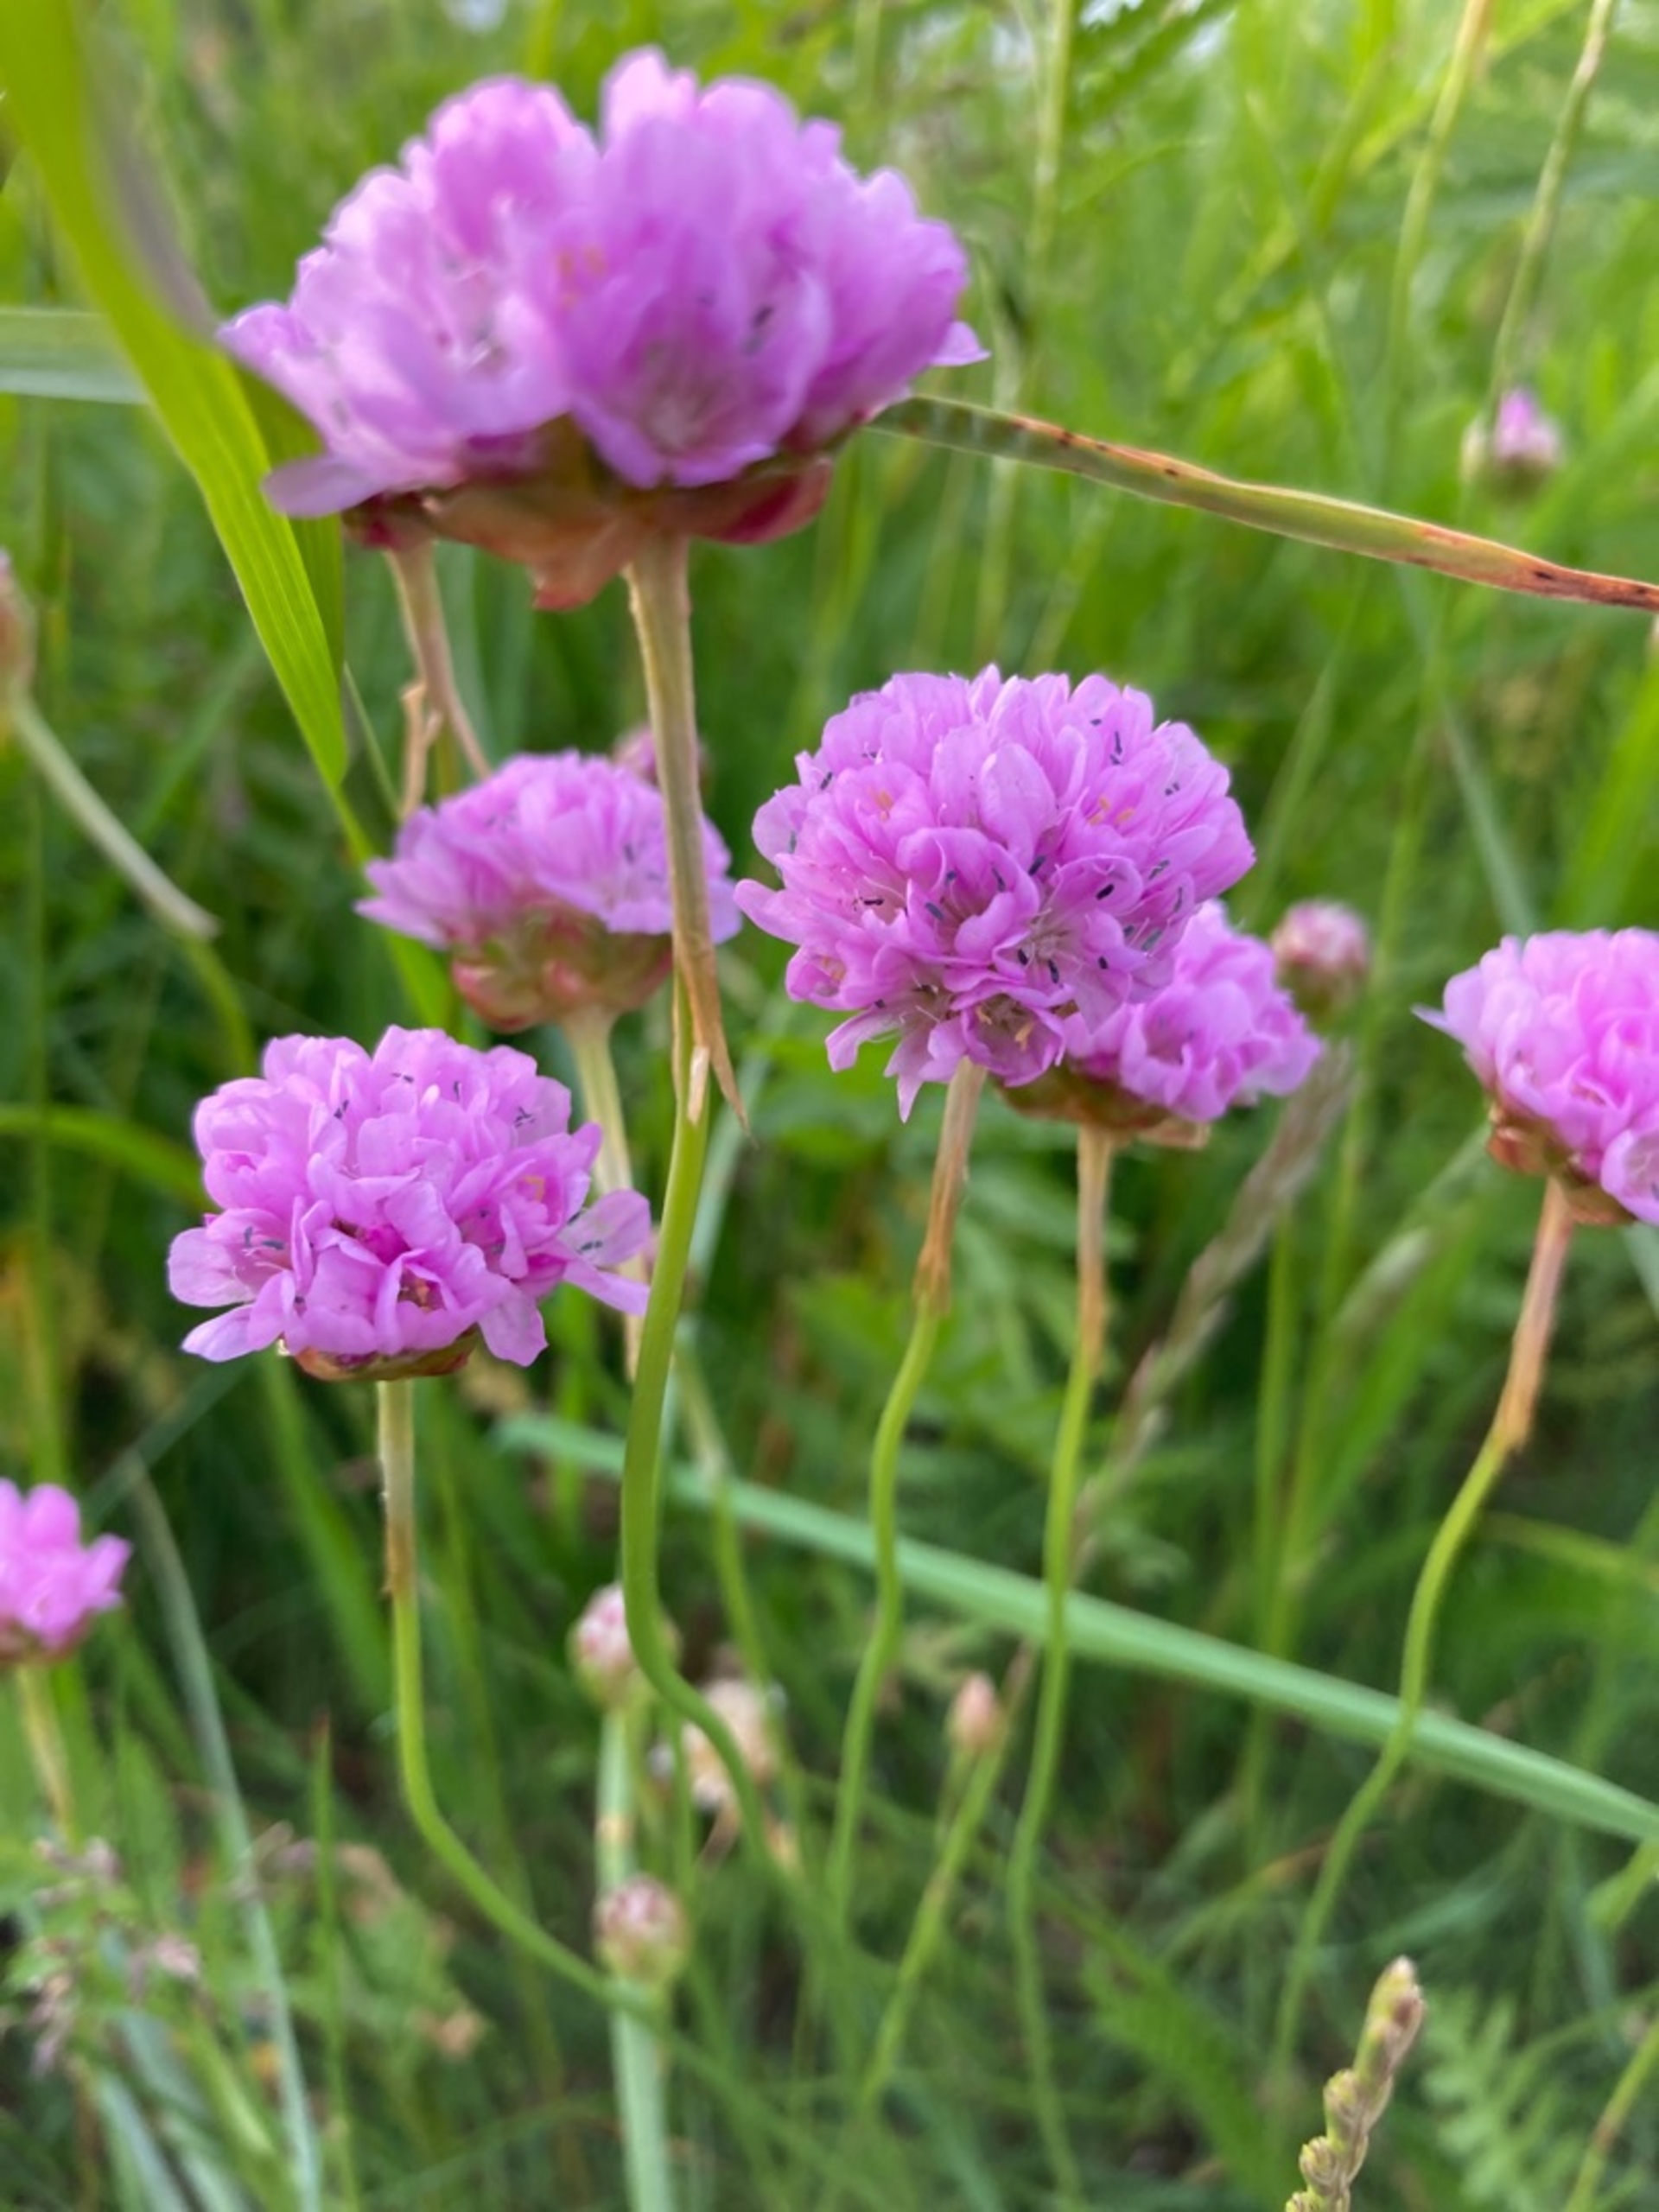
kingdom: Plantae
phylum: Tracheophyta
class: Magnoliopsida
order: Caryophyllales
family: Plumbaginaceae
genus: Armeria
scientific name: Armeria maritima
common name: Strand-engelskgræs
